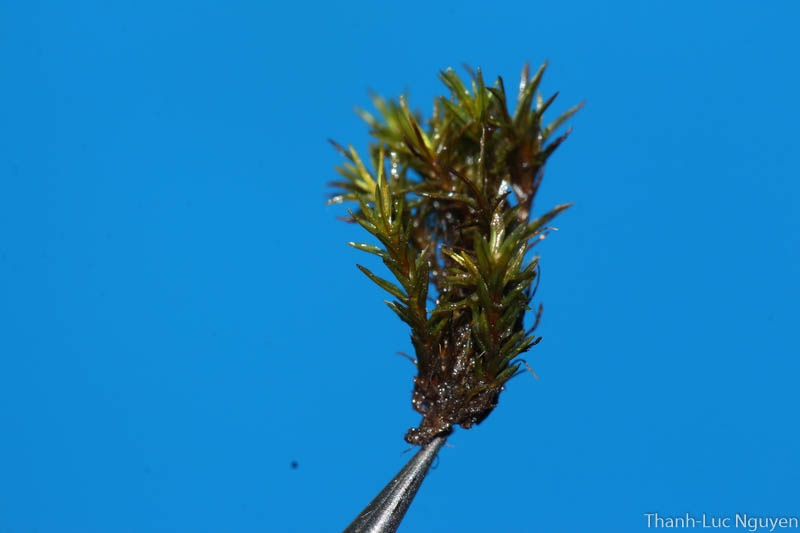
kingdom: Plantae
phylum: Bryophyta
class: Bryopsida
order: Pottiales
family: Pottiaceae
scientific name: Pottiaceae
